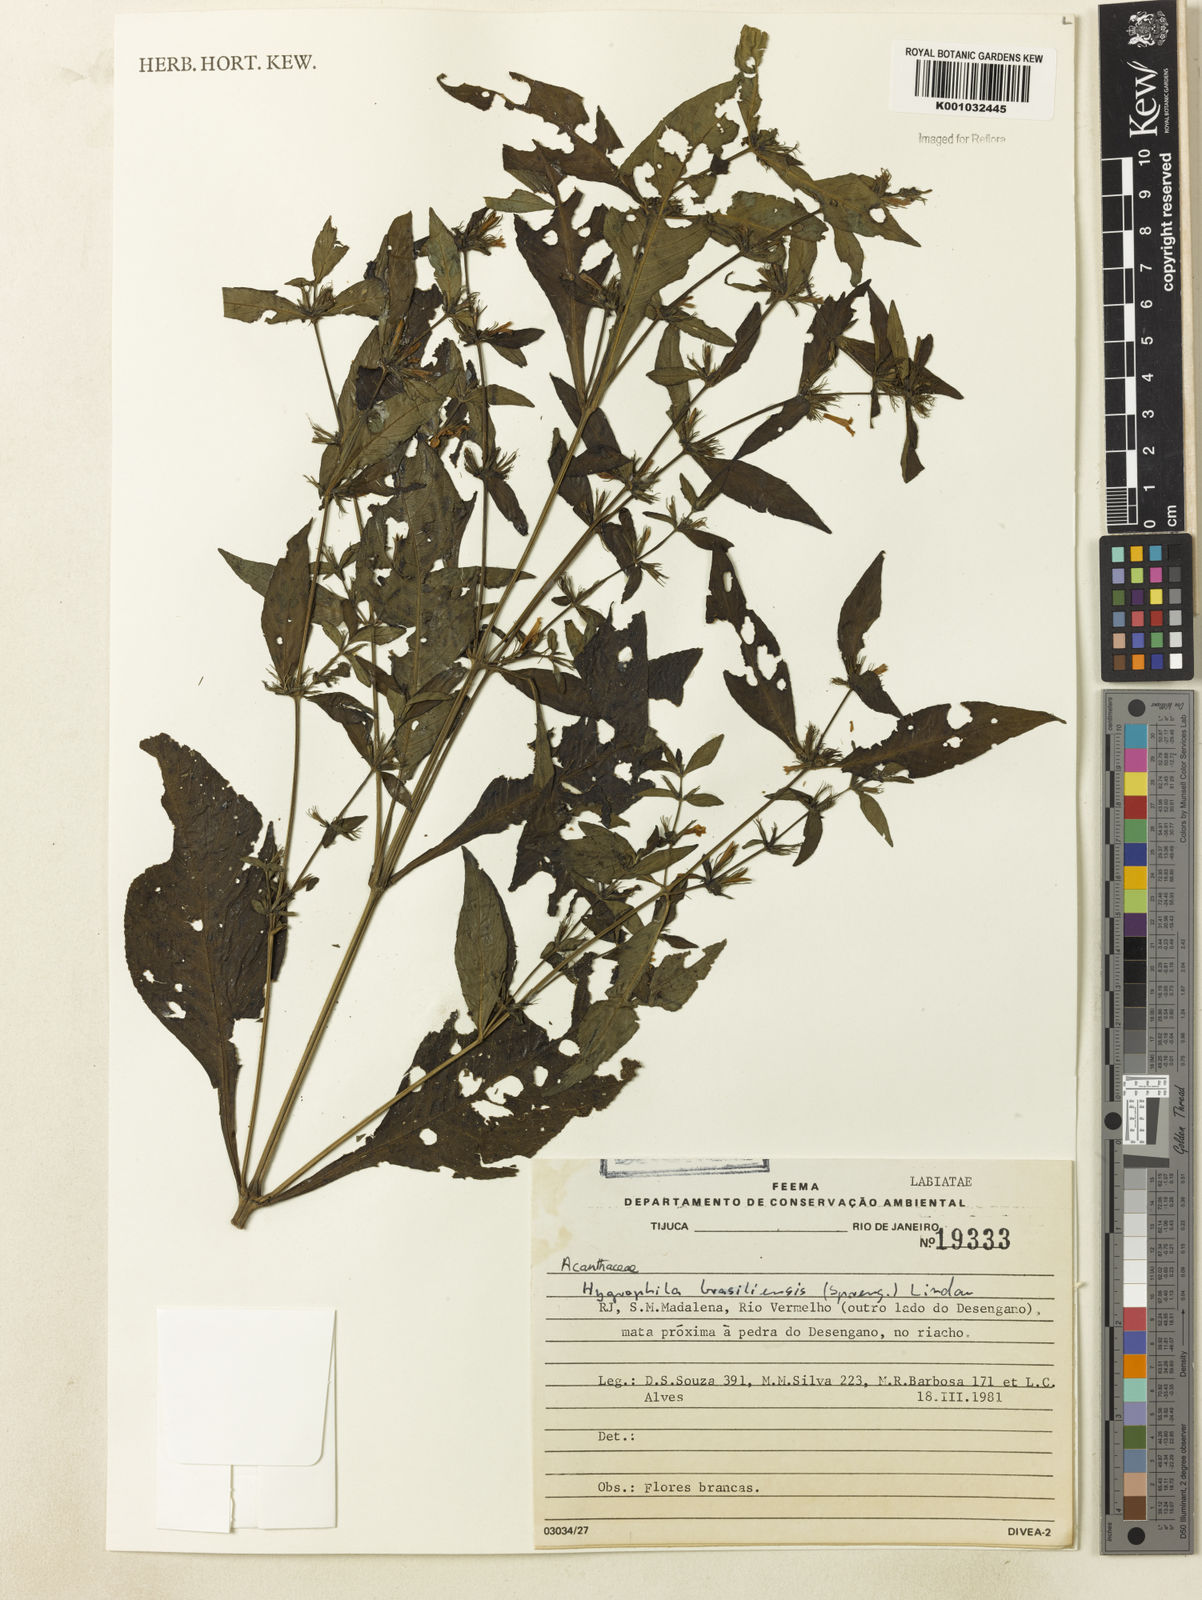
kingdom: Plantae
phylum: Tracheophyta
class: Magnoliopsida
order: Lamiales
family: Acanthaceae
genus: Hygrophila
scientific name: Hygrophila costata
